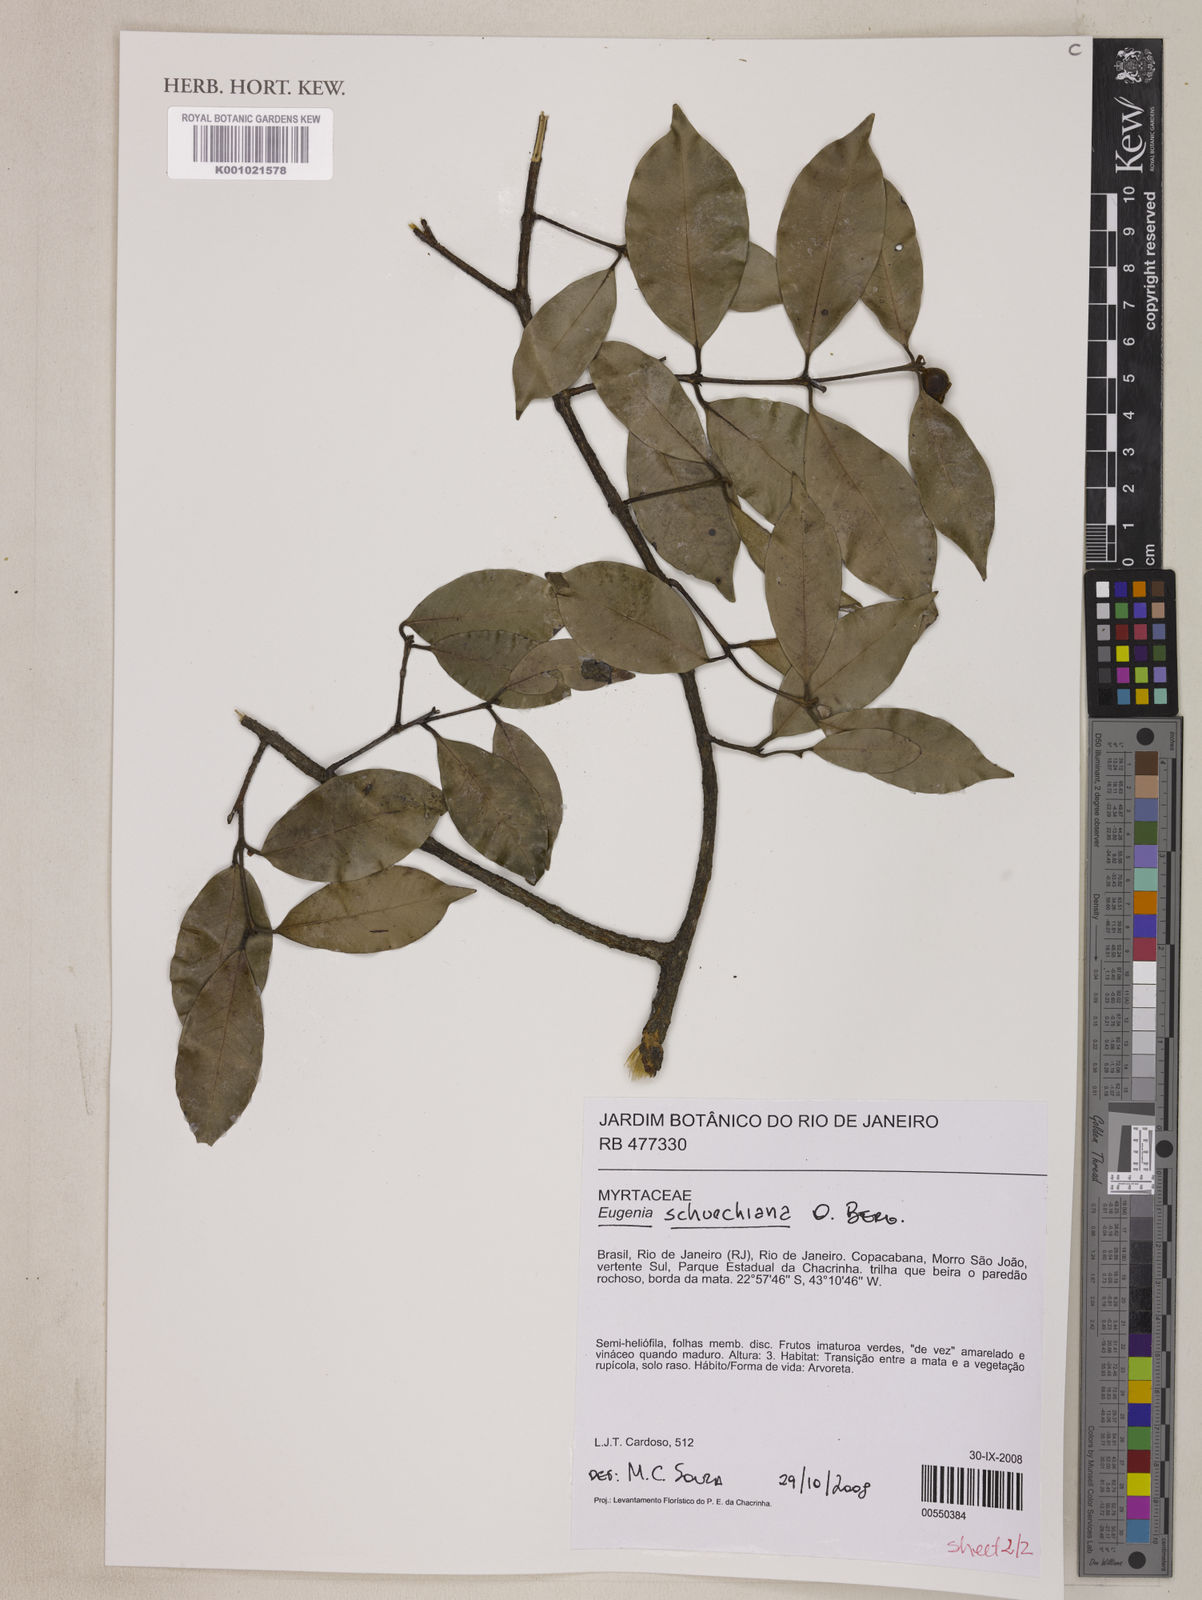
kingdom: Plantae
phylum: Tracheophyta
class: Magnoliopsida
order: Myrtales
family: Myrtaceae
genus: Eugenia
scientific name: Eugenia verticillata
